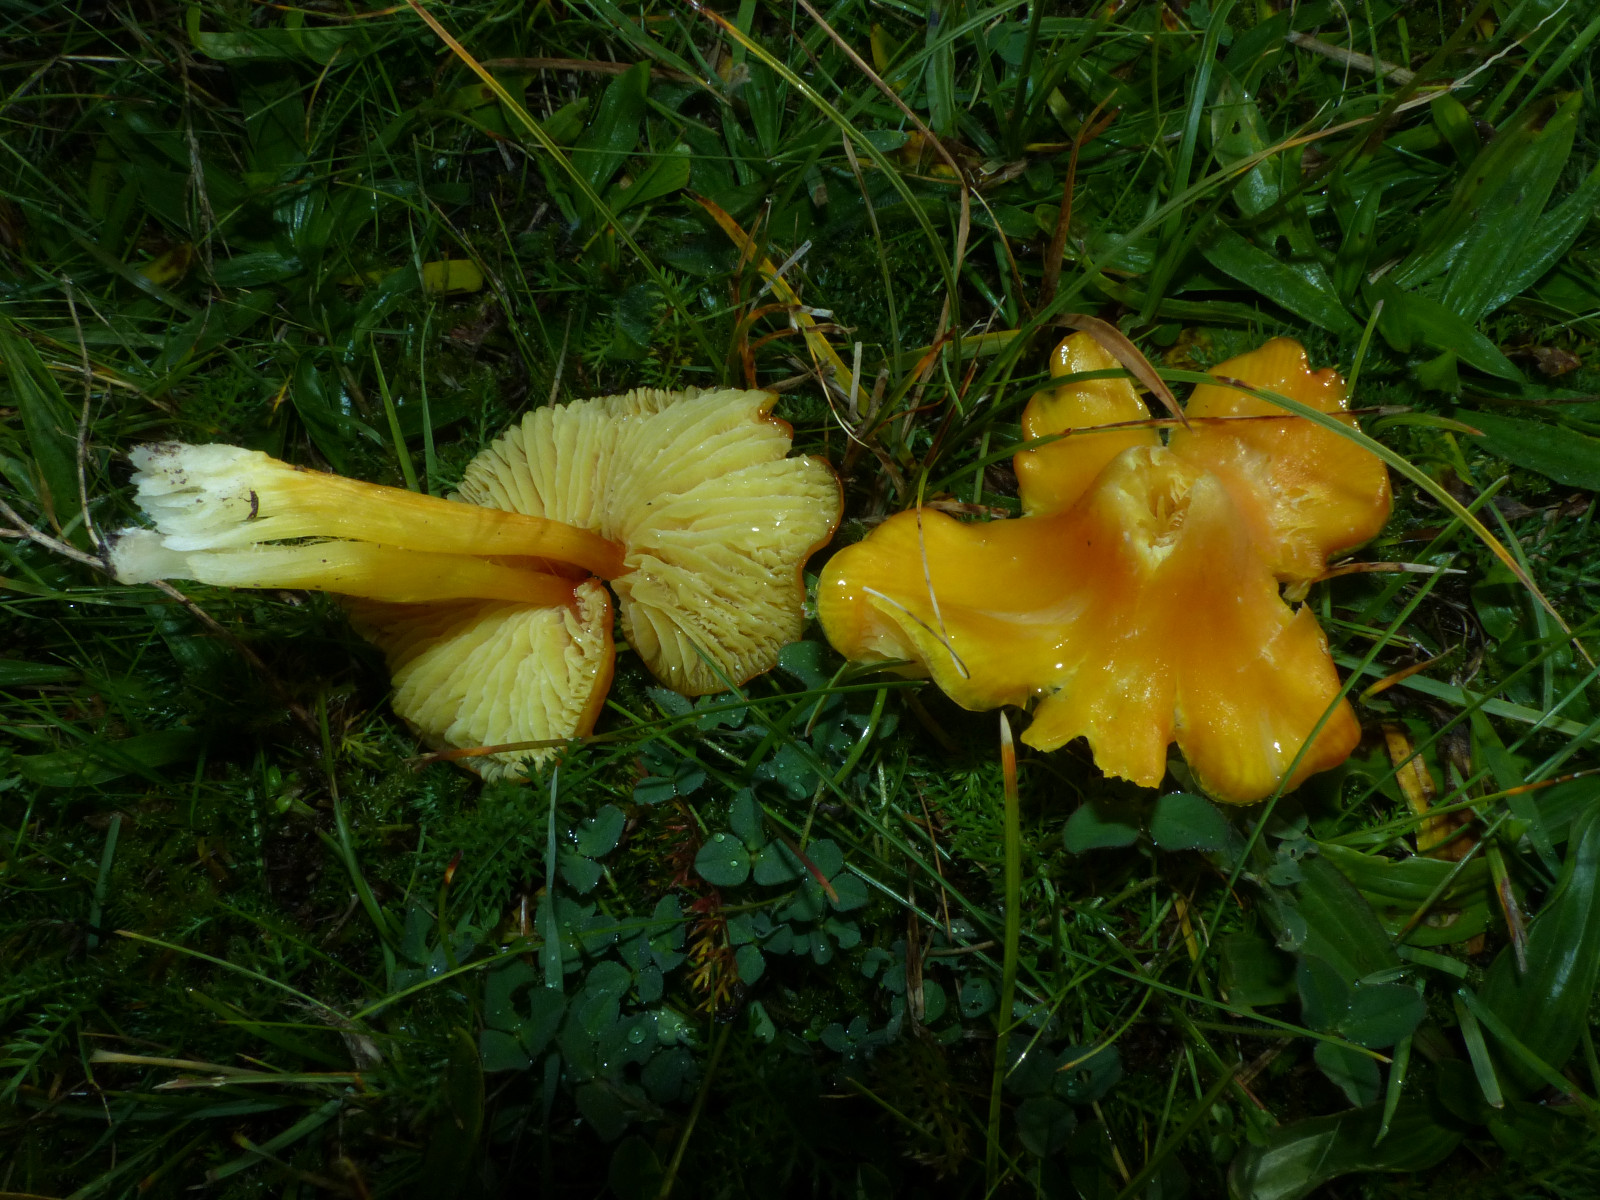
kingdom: Fungi
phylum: Basidiomycota
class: Agaricomycetes
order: Agaricales
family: Hygrophoraceae
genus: Hygrocybe
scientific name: Hygrocybe acutoconica
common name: spidspuklet vokshat
